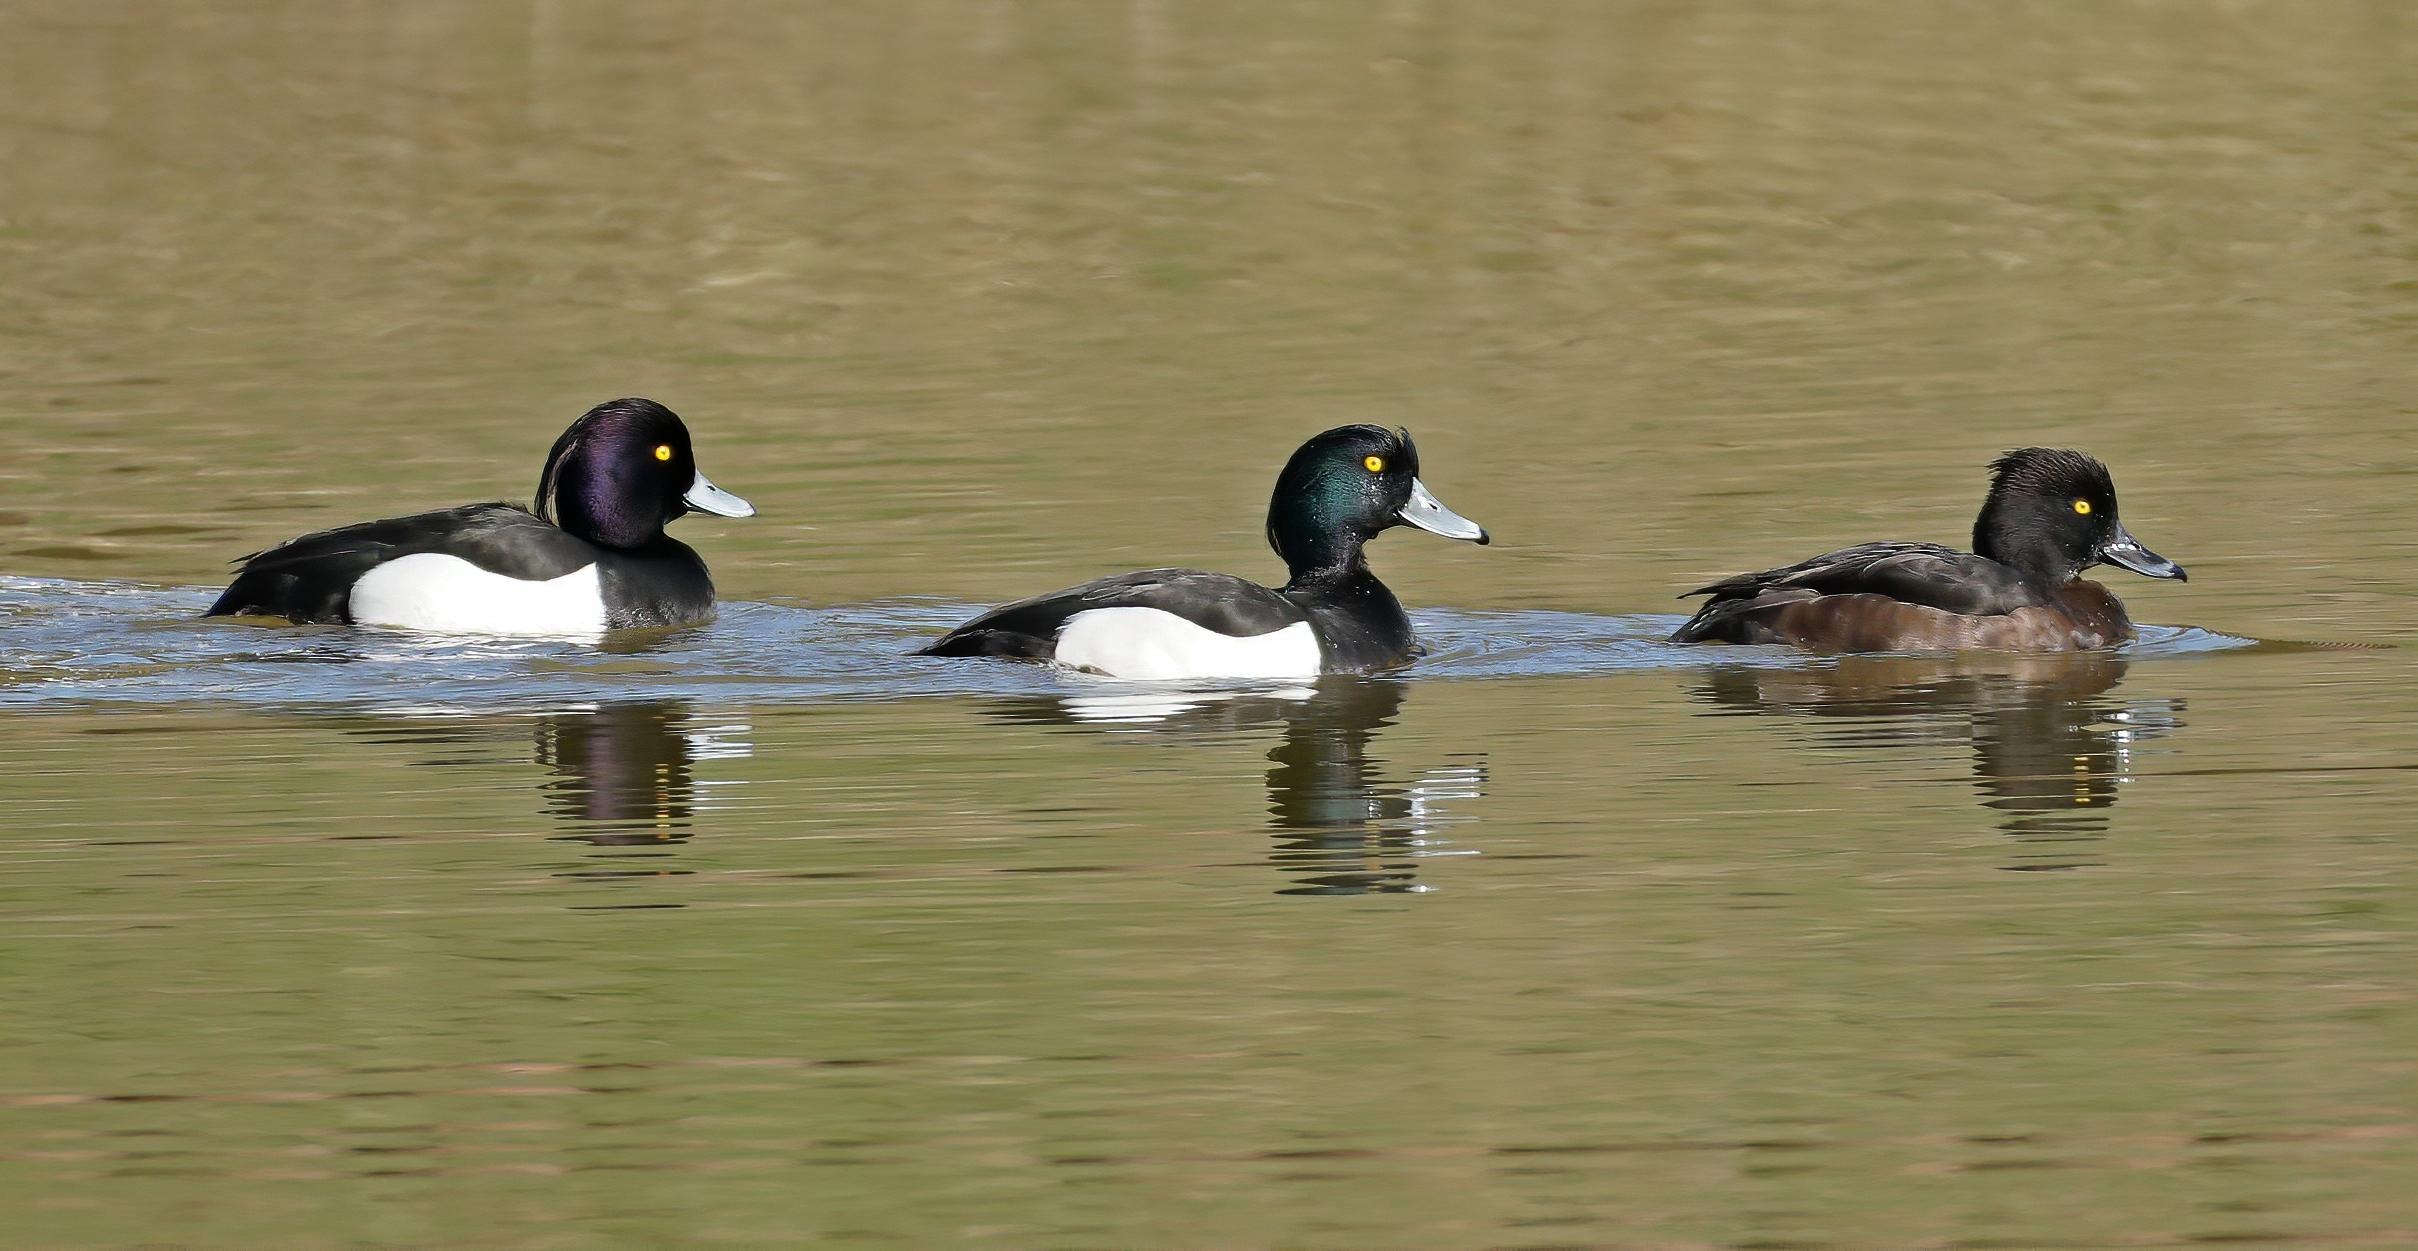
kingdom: Animalia
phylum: Chordata
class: Aves
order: Anseriformes
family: Anatidae
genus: Aythya
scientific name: Aythya fuligula
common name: Troldand
